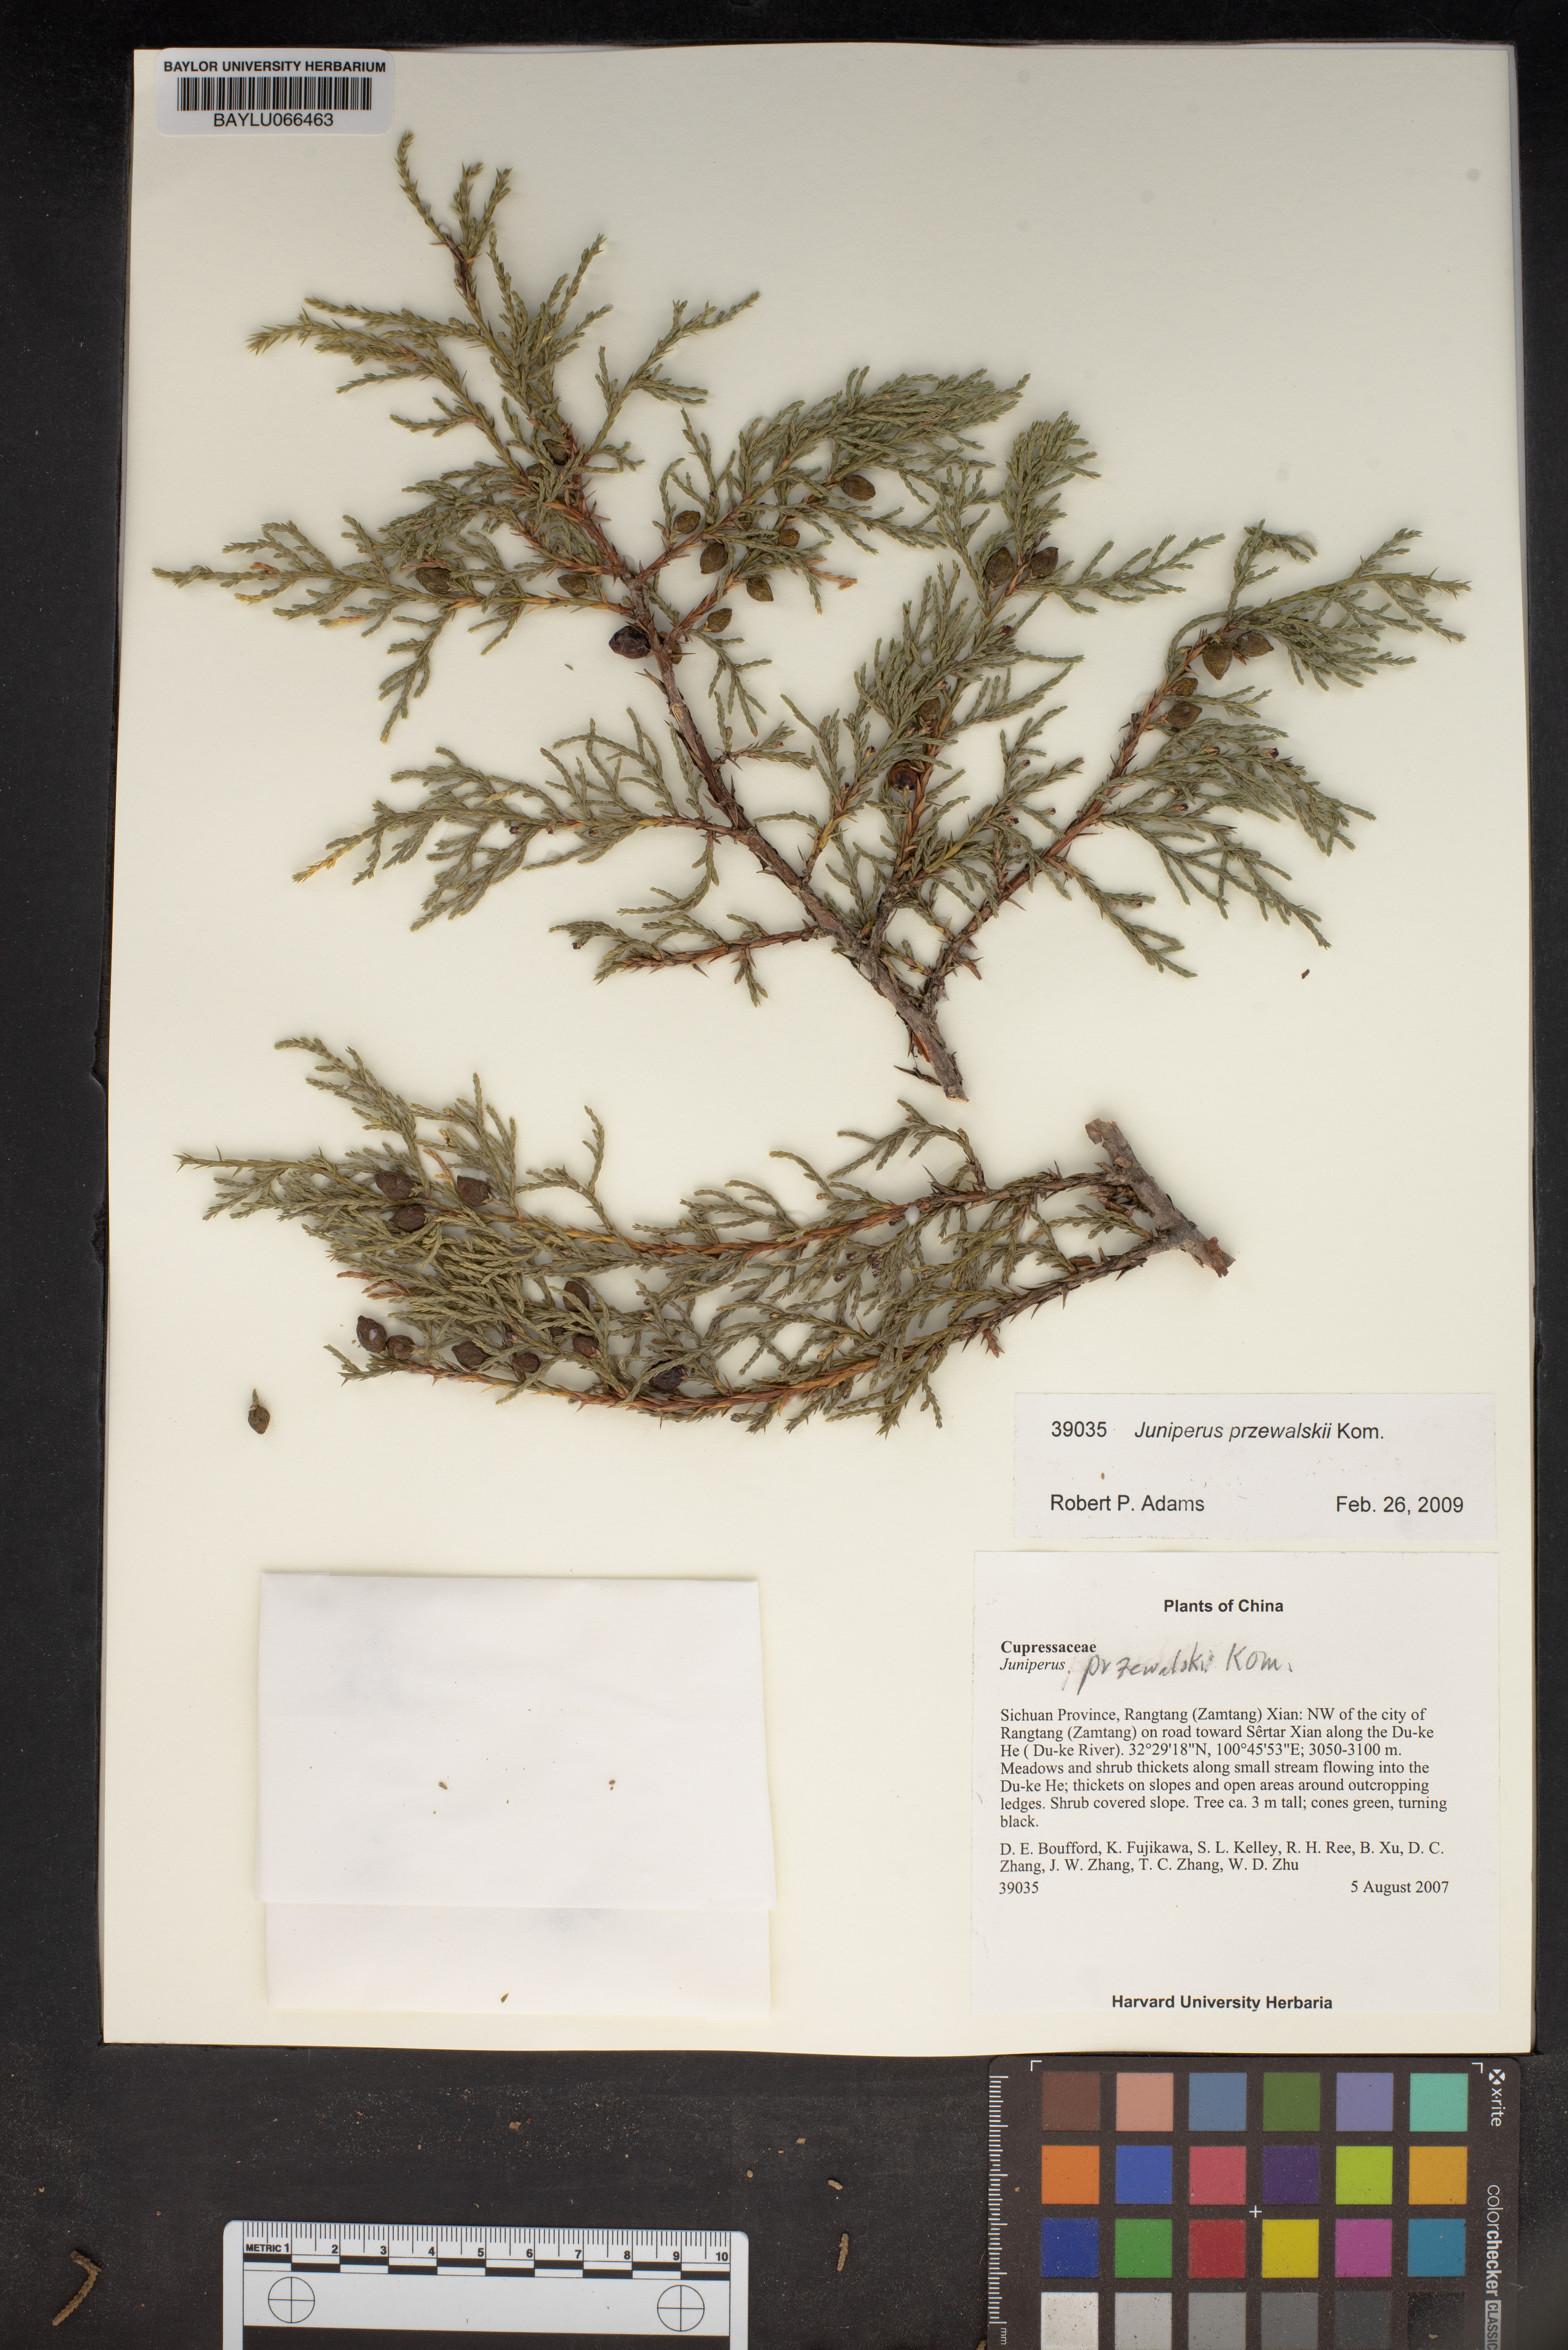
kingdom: Plantae
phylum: Tracheophyta
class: Pinopsida
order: Pinales
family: Cupressaceae
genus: Juniperus
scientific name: Juniperus przewalskii
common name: Przewalsi juniper
